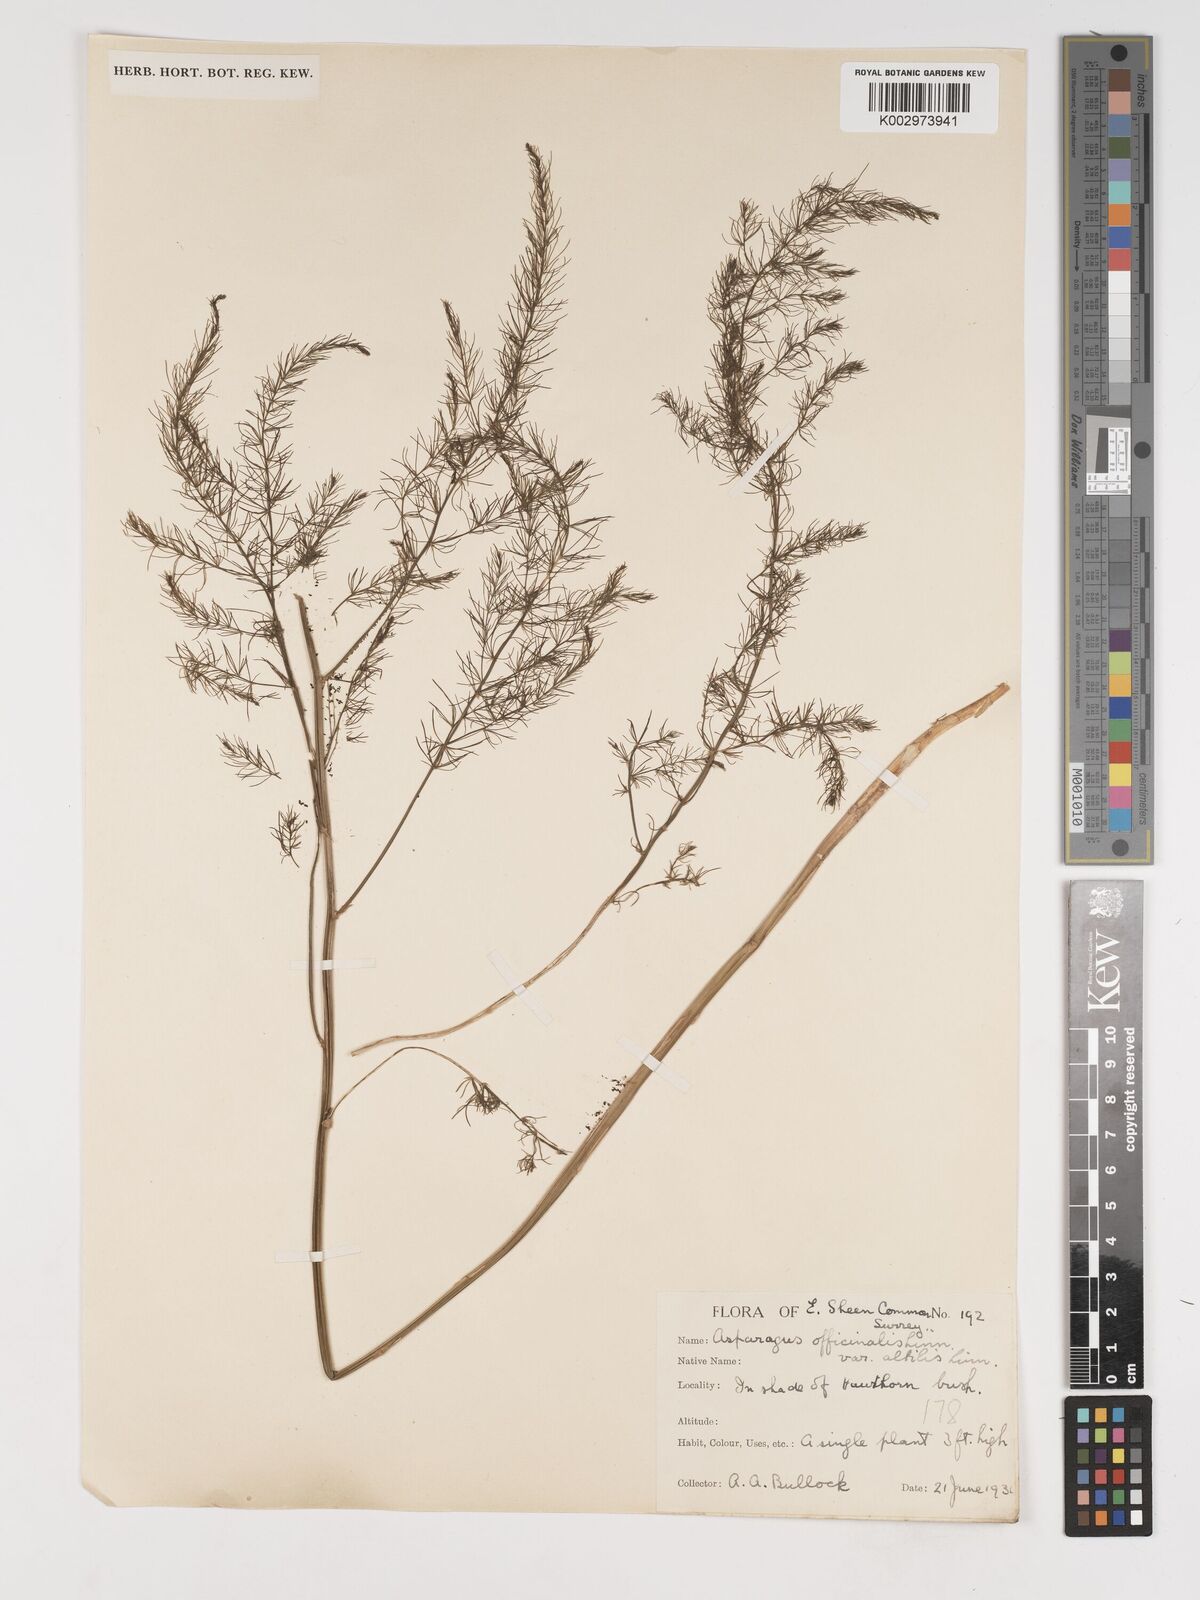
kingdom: Plantae
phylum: Tracheophyta
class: Liliopsida
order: Asparagales
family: Asparagaceae
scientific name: Asparagaceae
